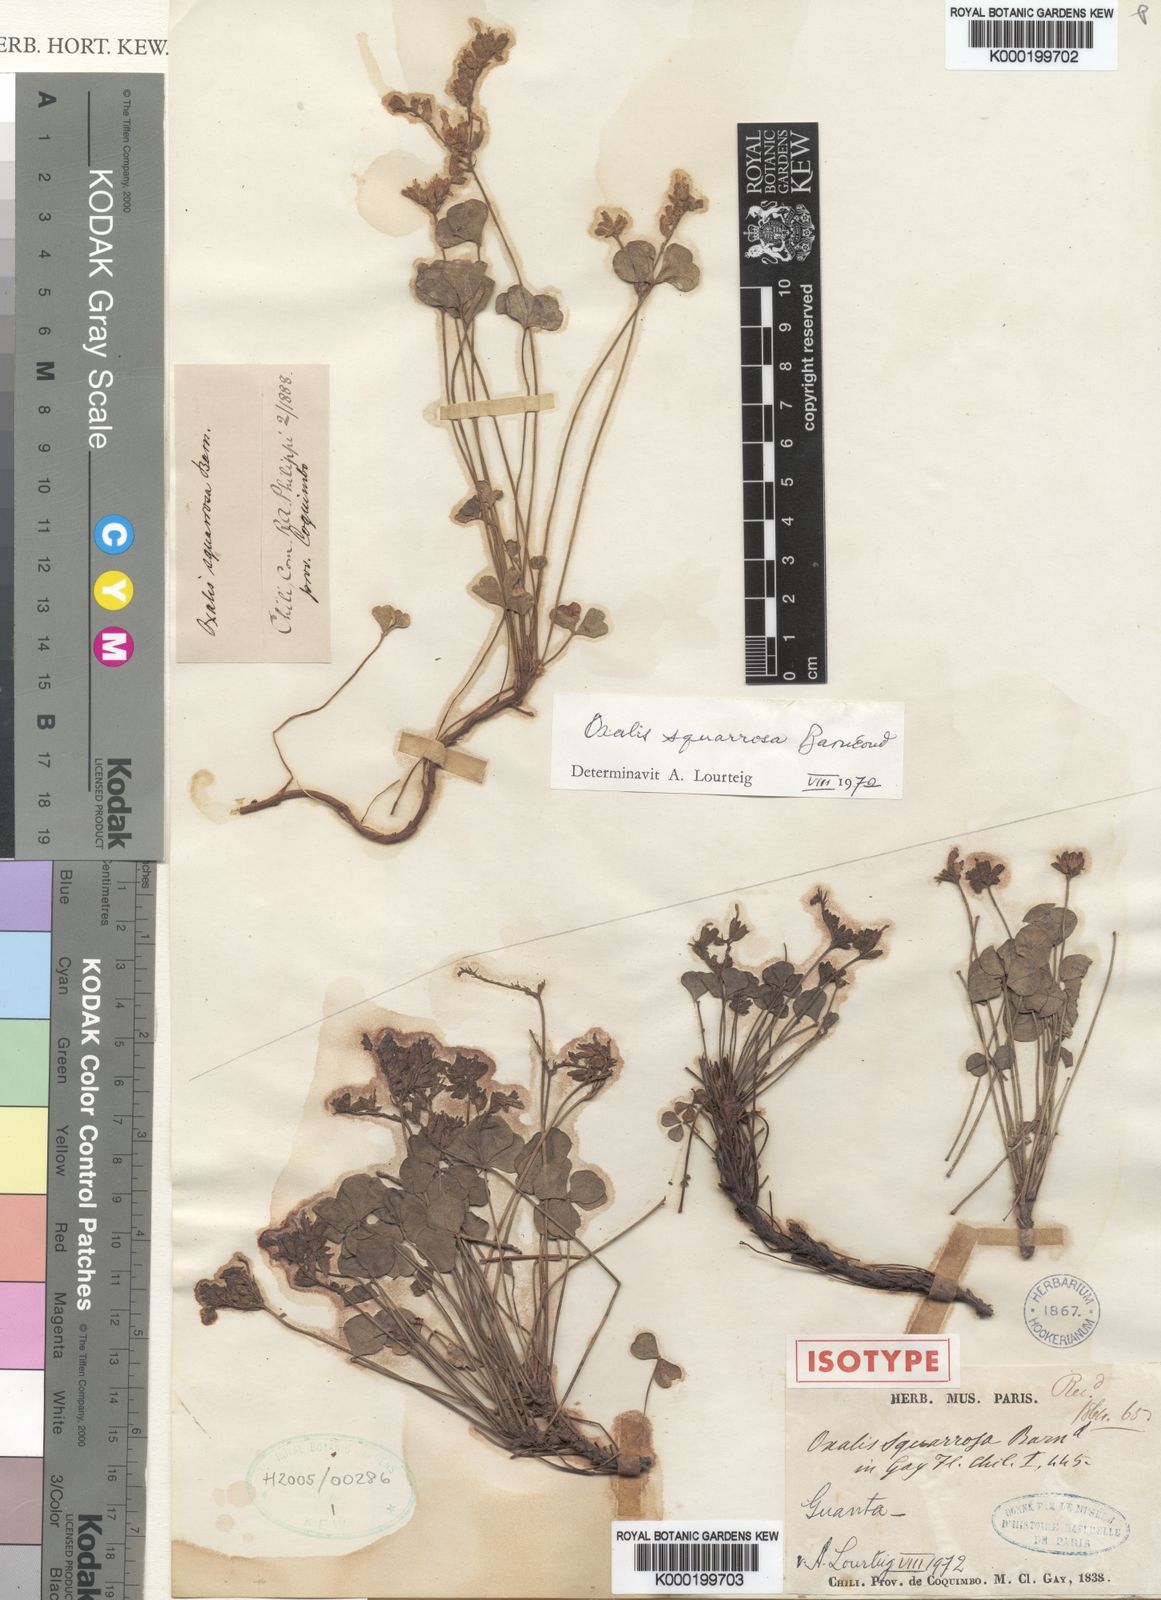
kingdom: Plantae
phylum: Tracheophyta
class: Magnoliopsida
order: Oxalidales
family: Oxalidaceae
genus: Oxalis
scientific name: Oxalis
